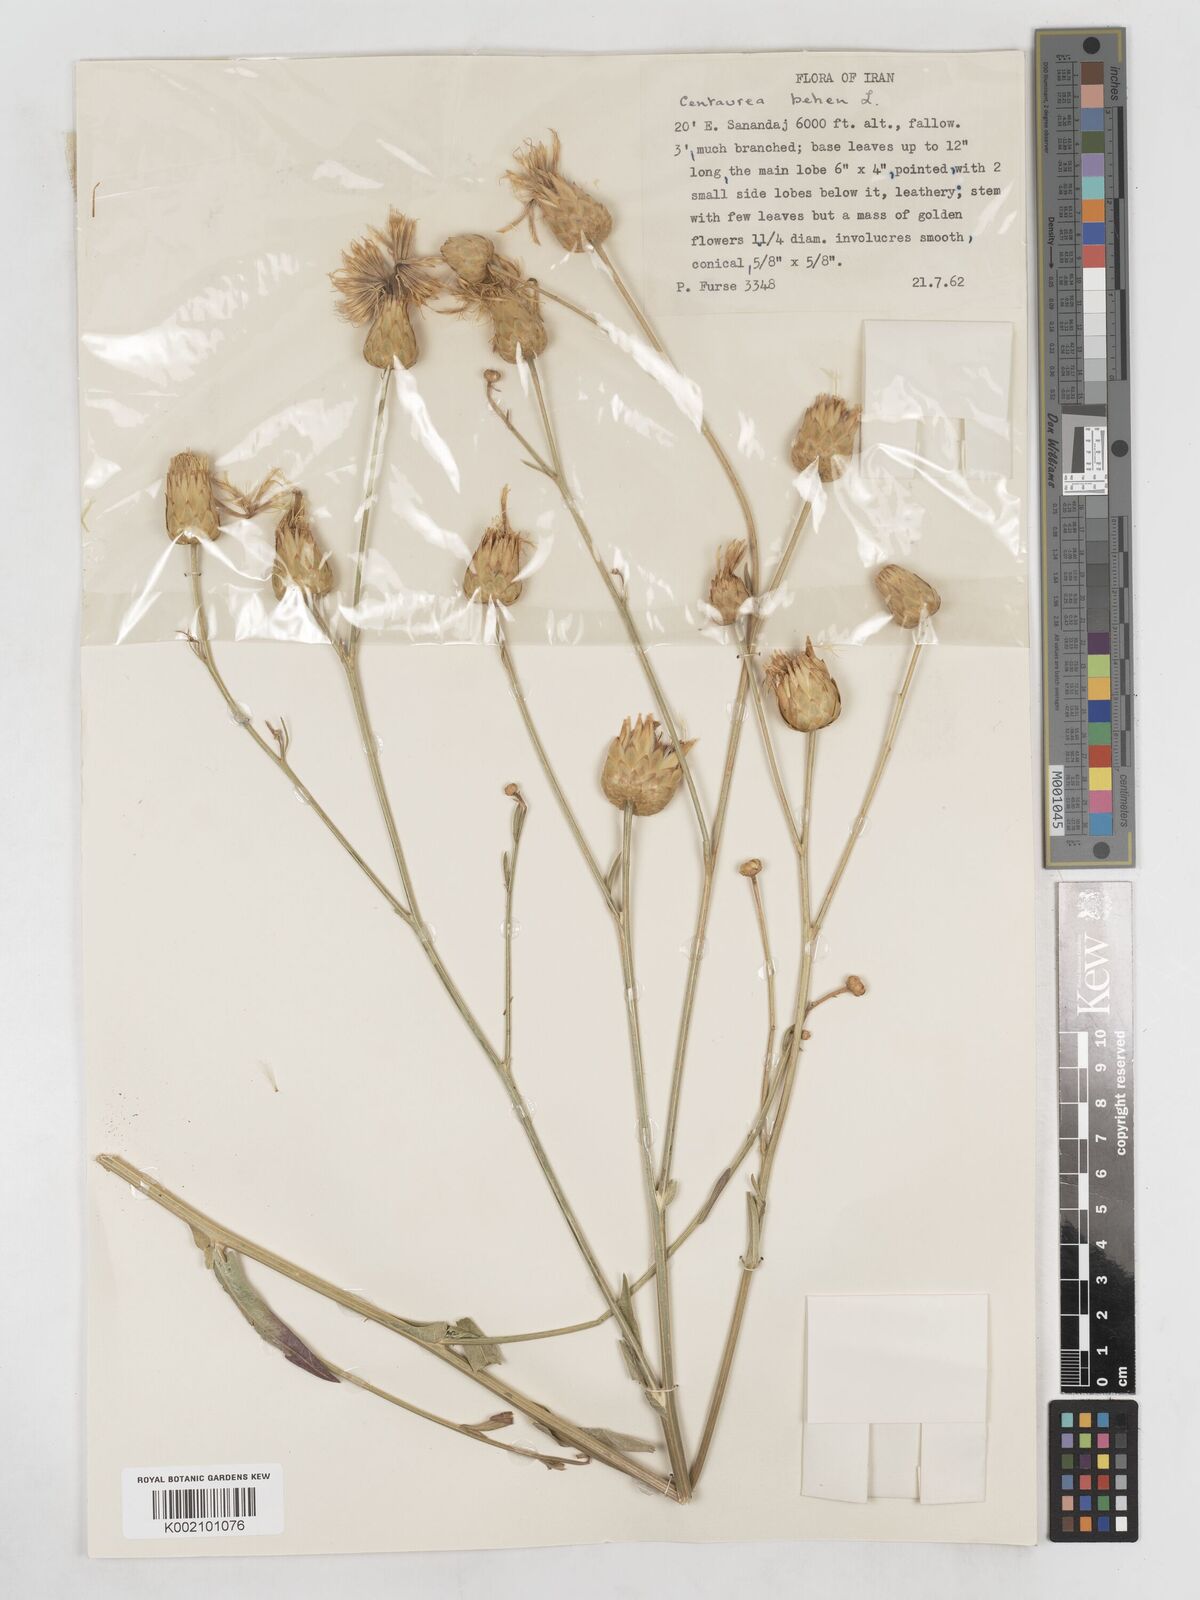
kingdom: Plantae
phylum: Tracheophyta
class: Magnoliopsida
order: Asterales
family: Asteraceae
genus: Centaurea
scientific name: Centaurea behen
